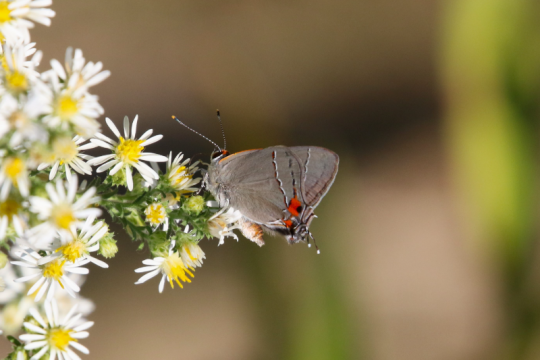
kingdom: Animalia
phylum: Arthropoda
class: Insecta
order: Lepidoptera
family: Lycaenidae
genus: Strymon
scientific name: Strymon melinus
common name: Gray Hairstreak
